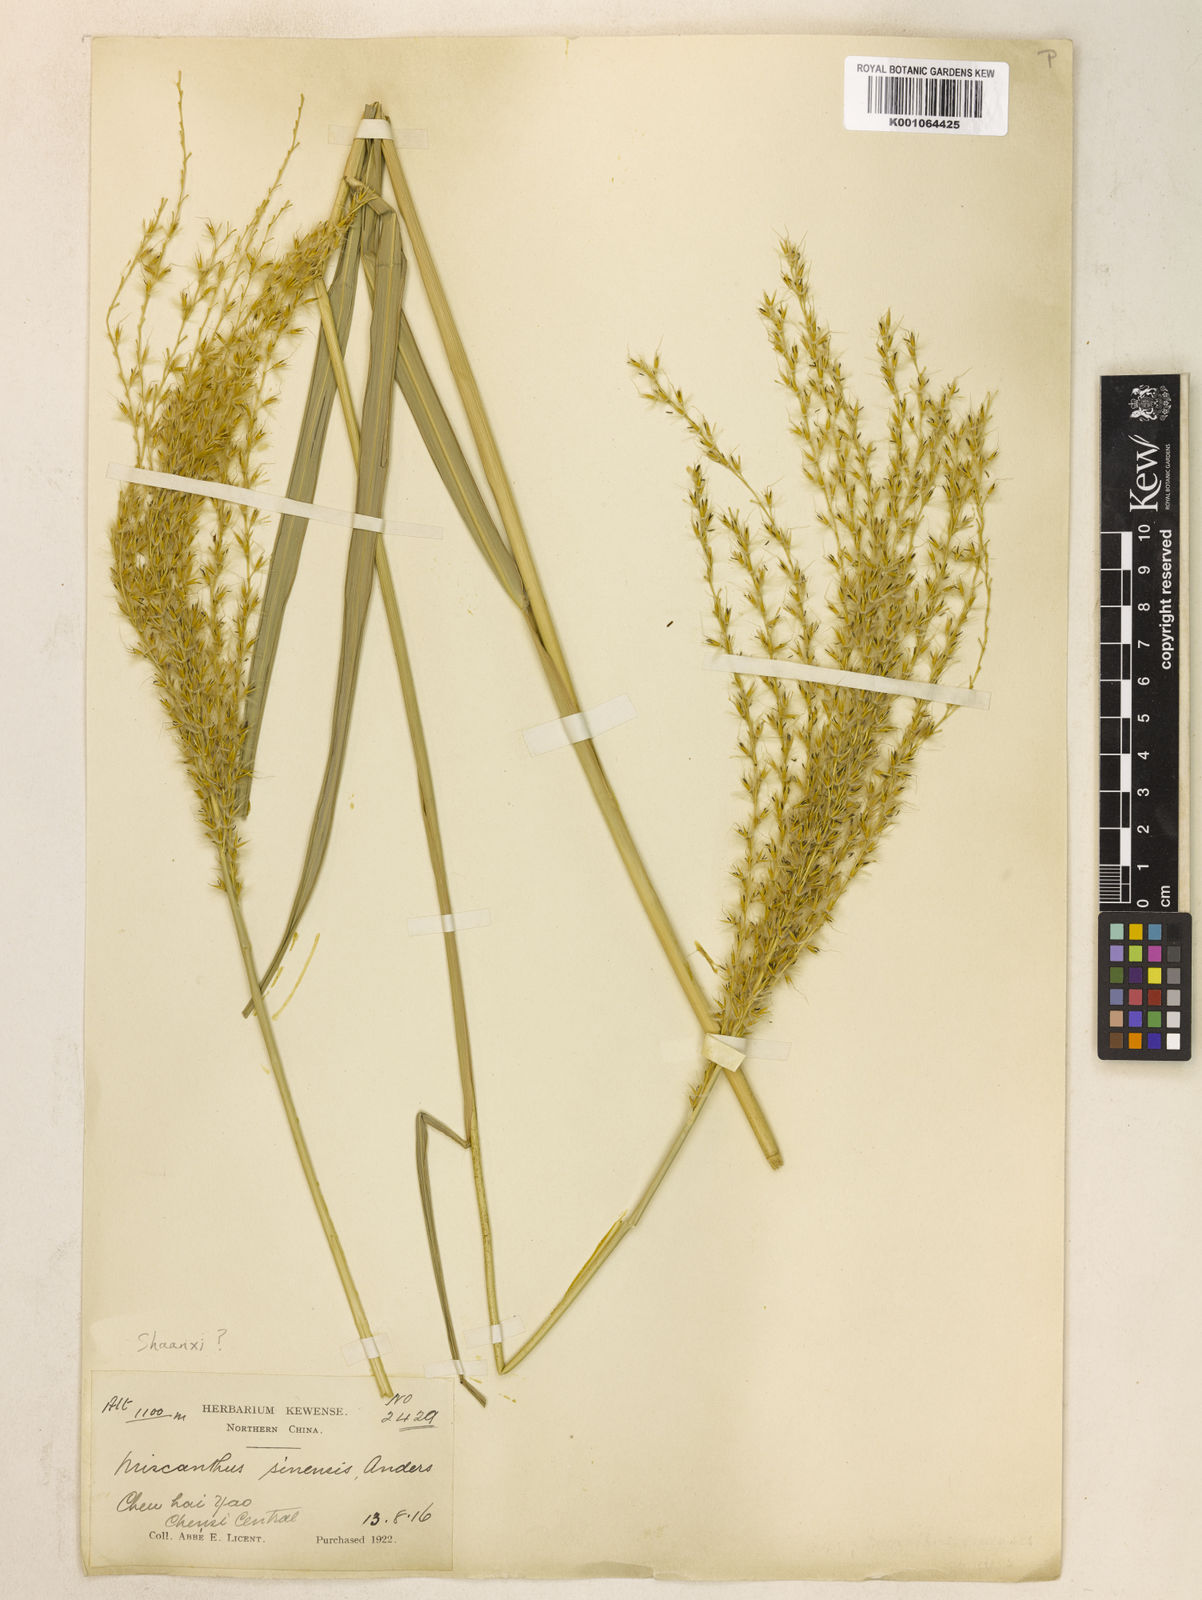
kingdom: Plantae
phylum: Tracheophyta
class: Liliopsida
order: Poales
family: Poaceae
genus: Miscanthus
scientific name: Miscanthus sinensis
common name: Chinese silvergrass
